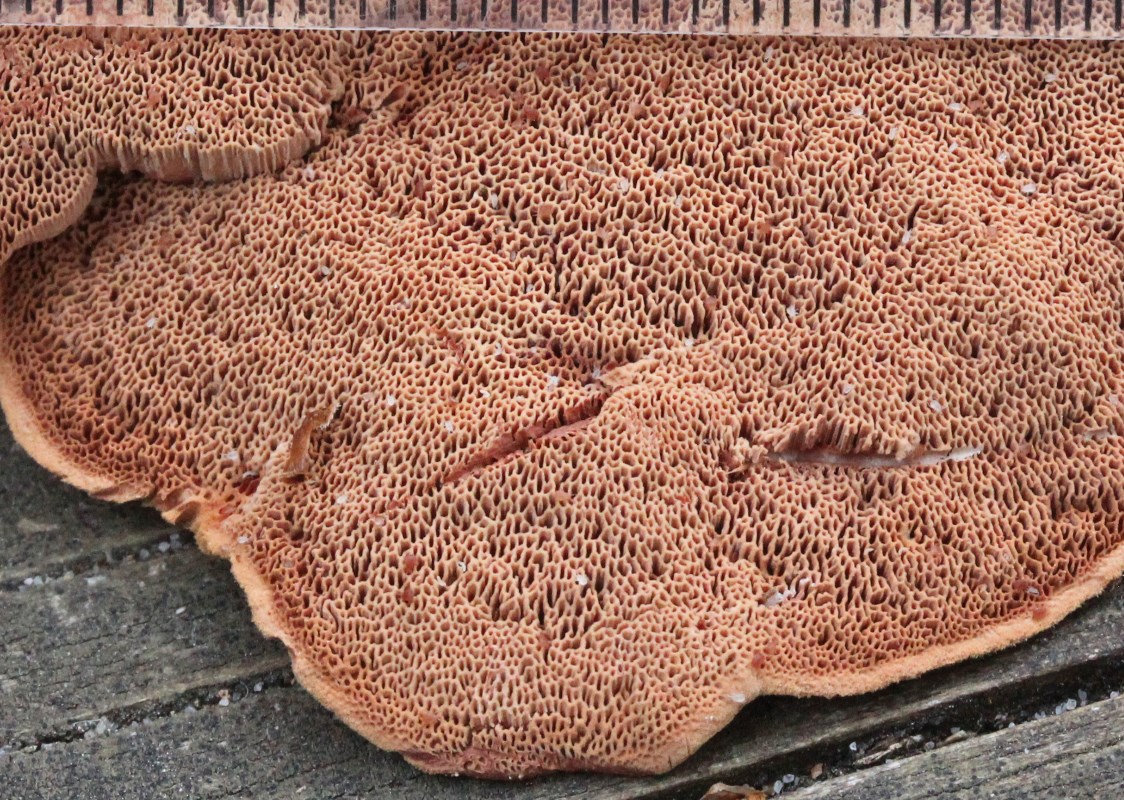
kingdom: Fungi
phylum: Basidiomycota
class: Agaricomycetes
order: Polyporales
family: Phanerochaetaceae
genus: Hapalopilus
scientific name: Hapalopilus rutilans
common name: rødlig okkerporesvamp
